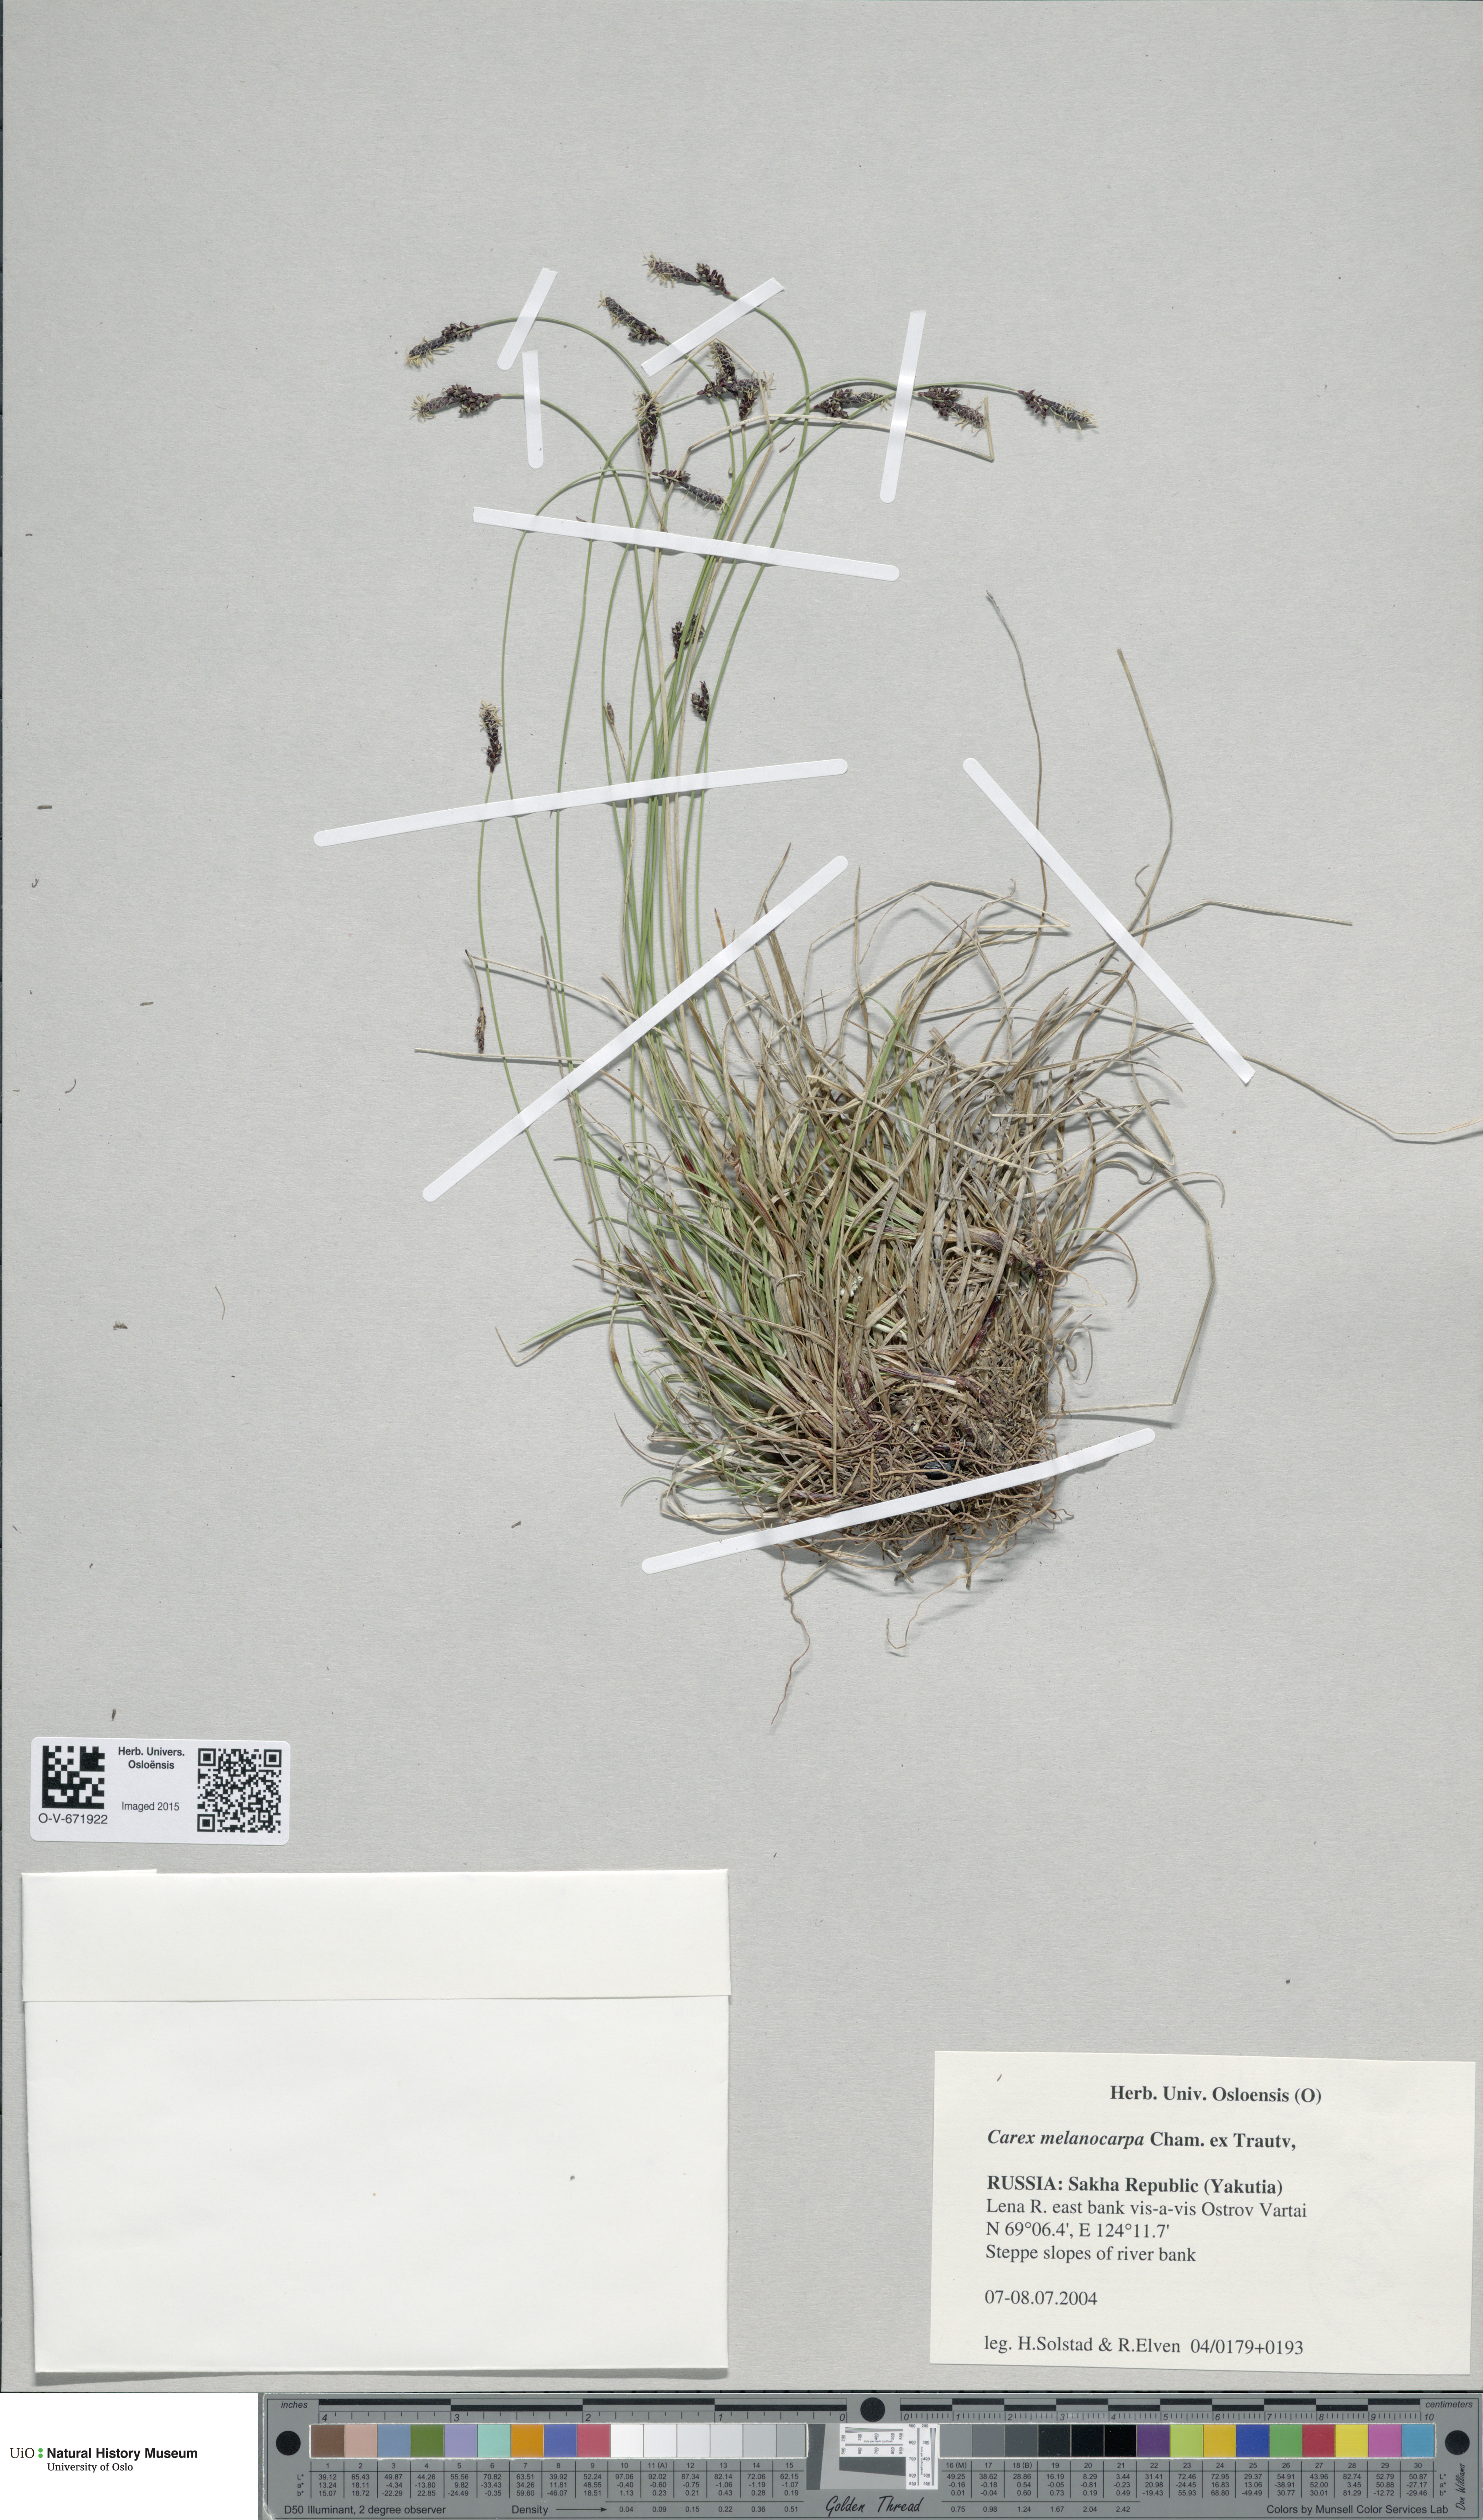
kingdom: Plantae
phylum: Tracheophyta
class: Liliopsida
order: Poales
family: Cyperaceae
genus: Carex
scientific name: Carex melanocarpa
